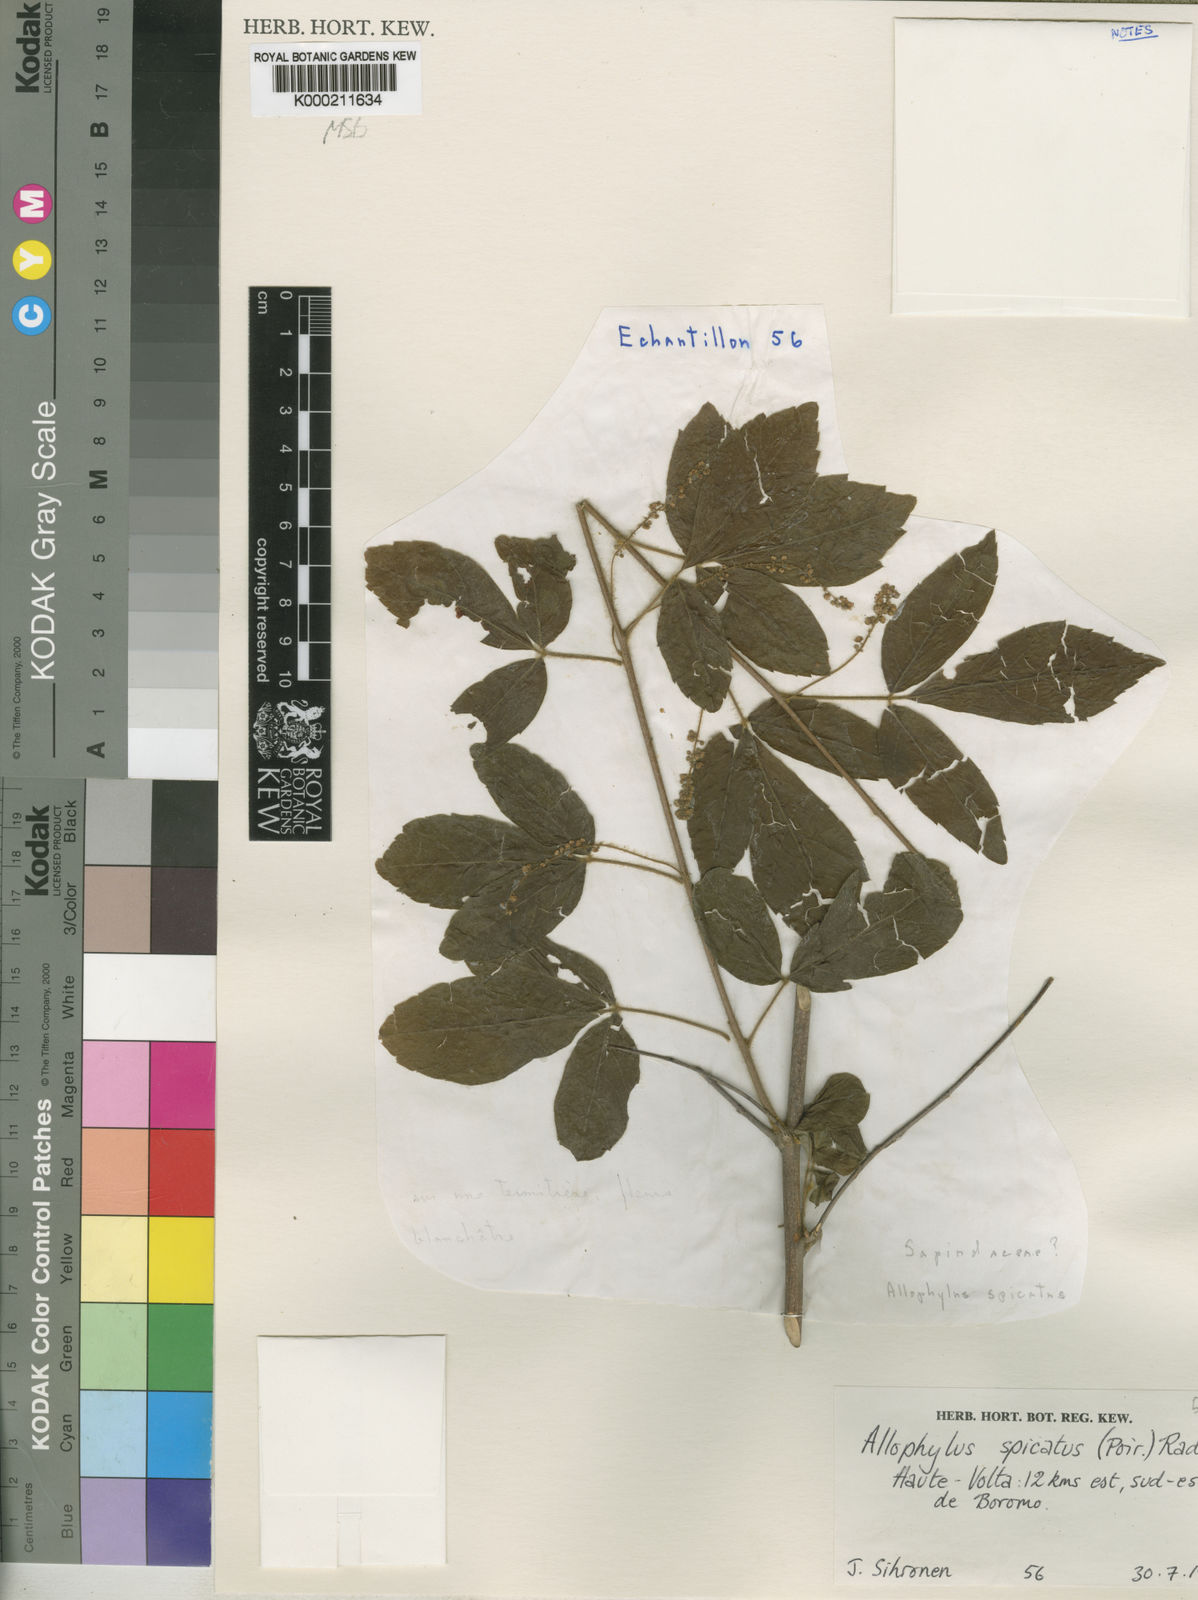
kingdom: Plantae
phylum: Tracheophyta
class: Magnoliopsida
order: Sapindales
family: Sapindaceae
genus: Allophylus
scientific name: Allophylus spicatus
